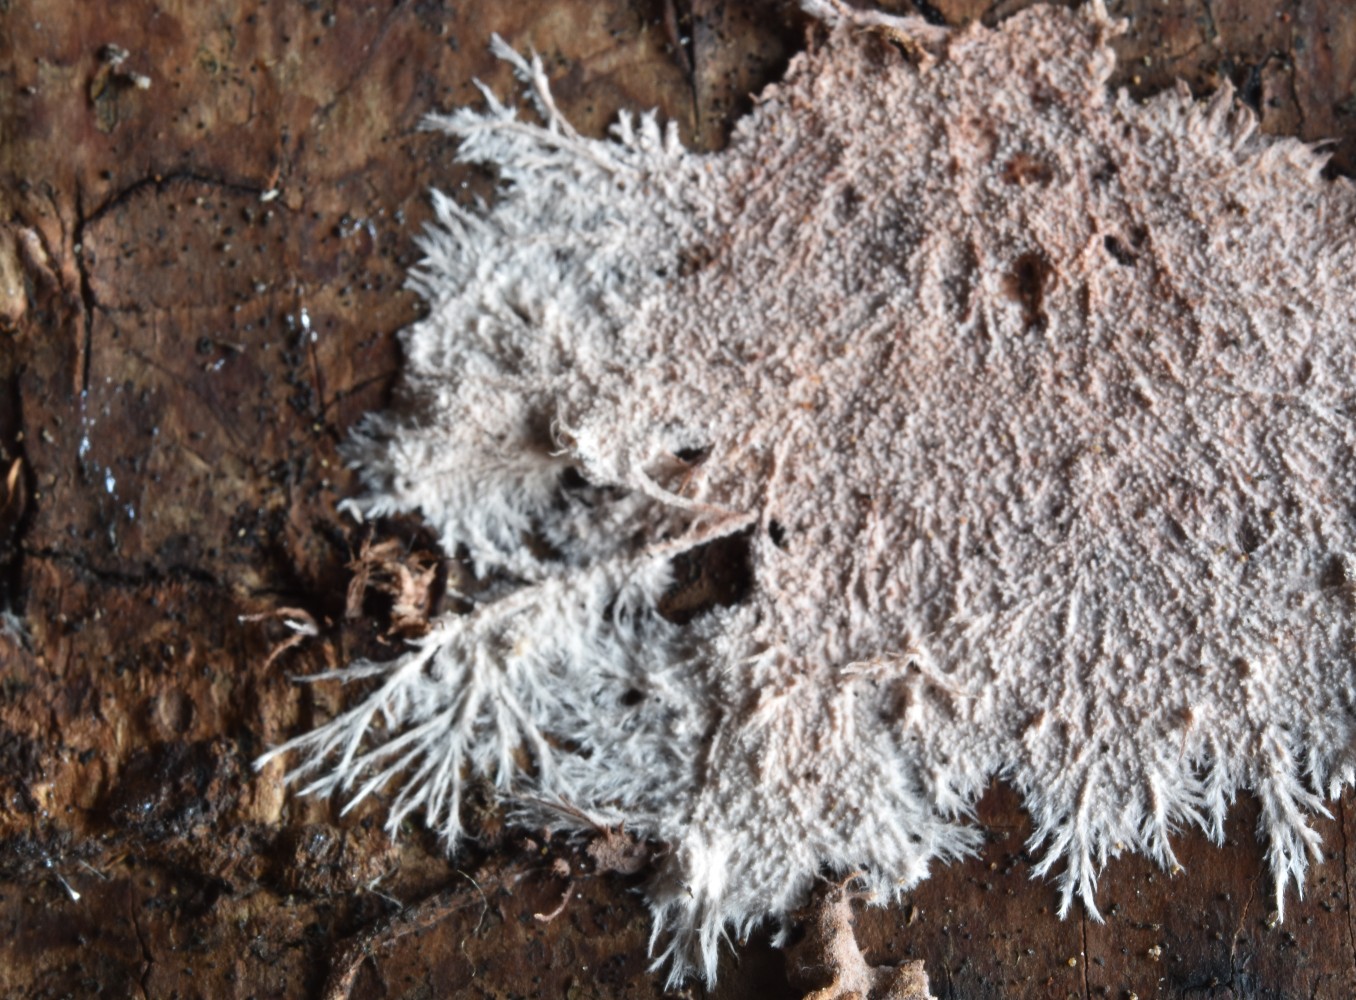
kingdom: Fungi
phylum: Basidiomycota
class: Agaricomycetes
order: Polyporales
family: Steccherinaceae
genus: Steccherinum
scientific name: Steccherinum fimbriatum
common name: trådet skønpig
